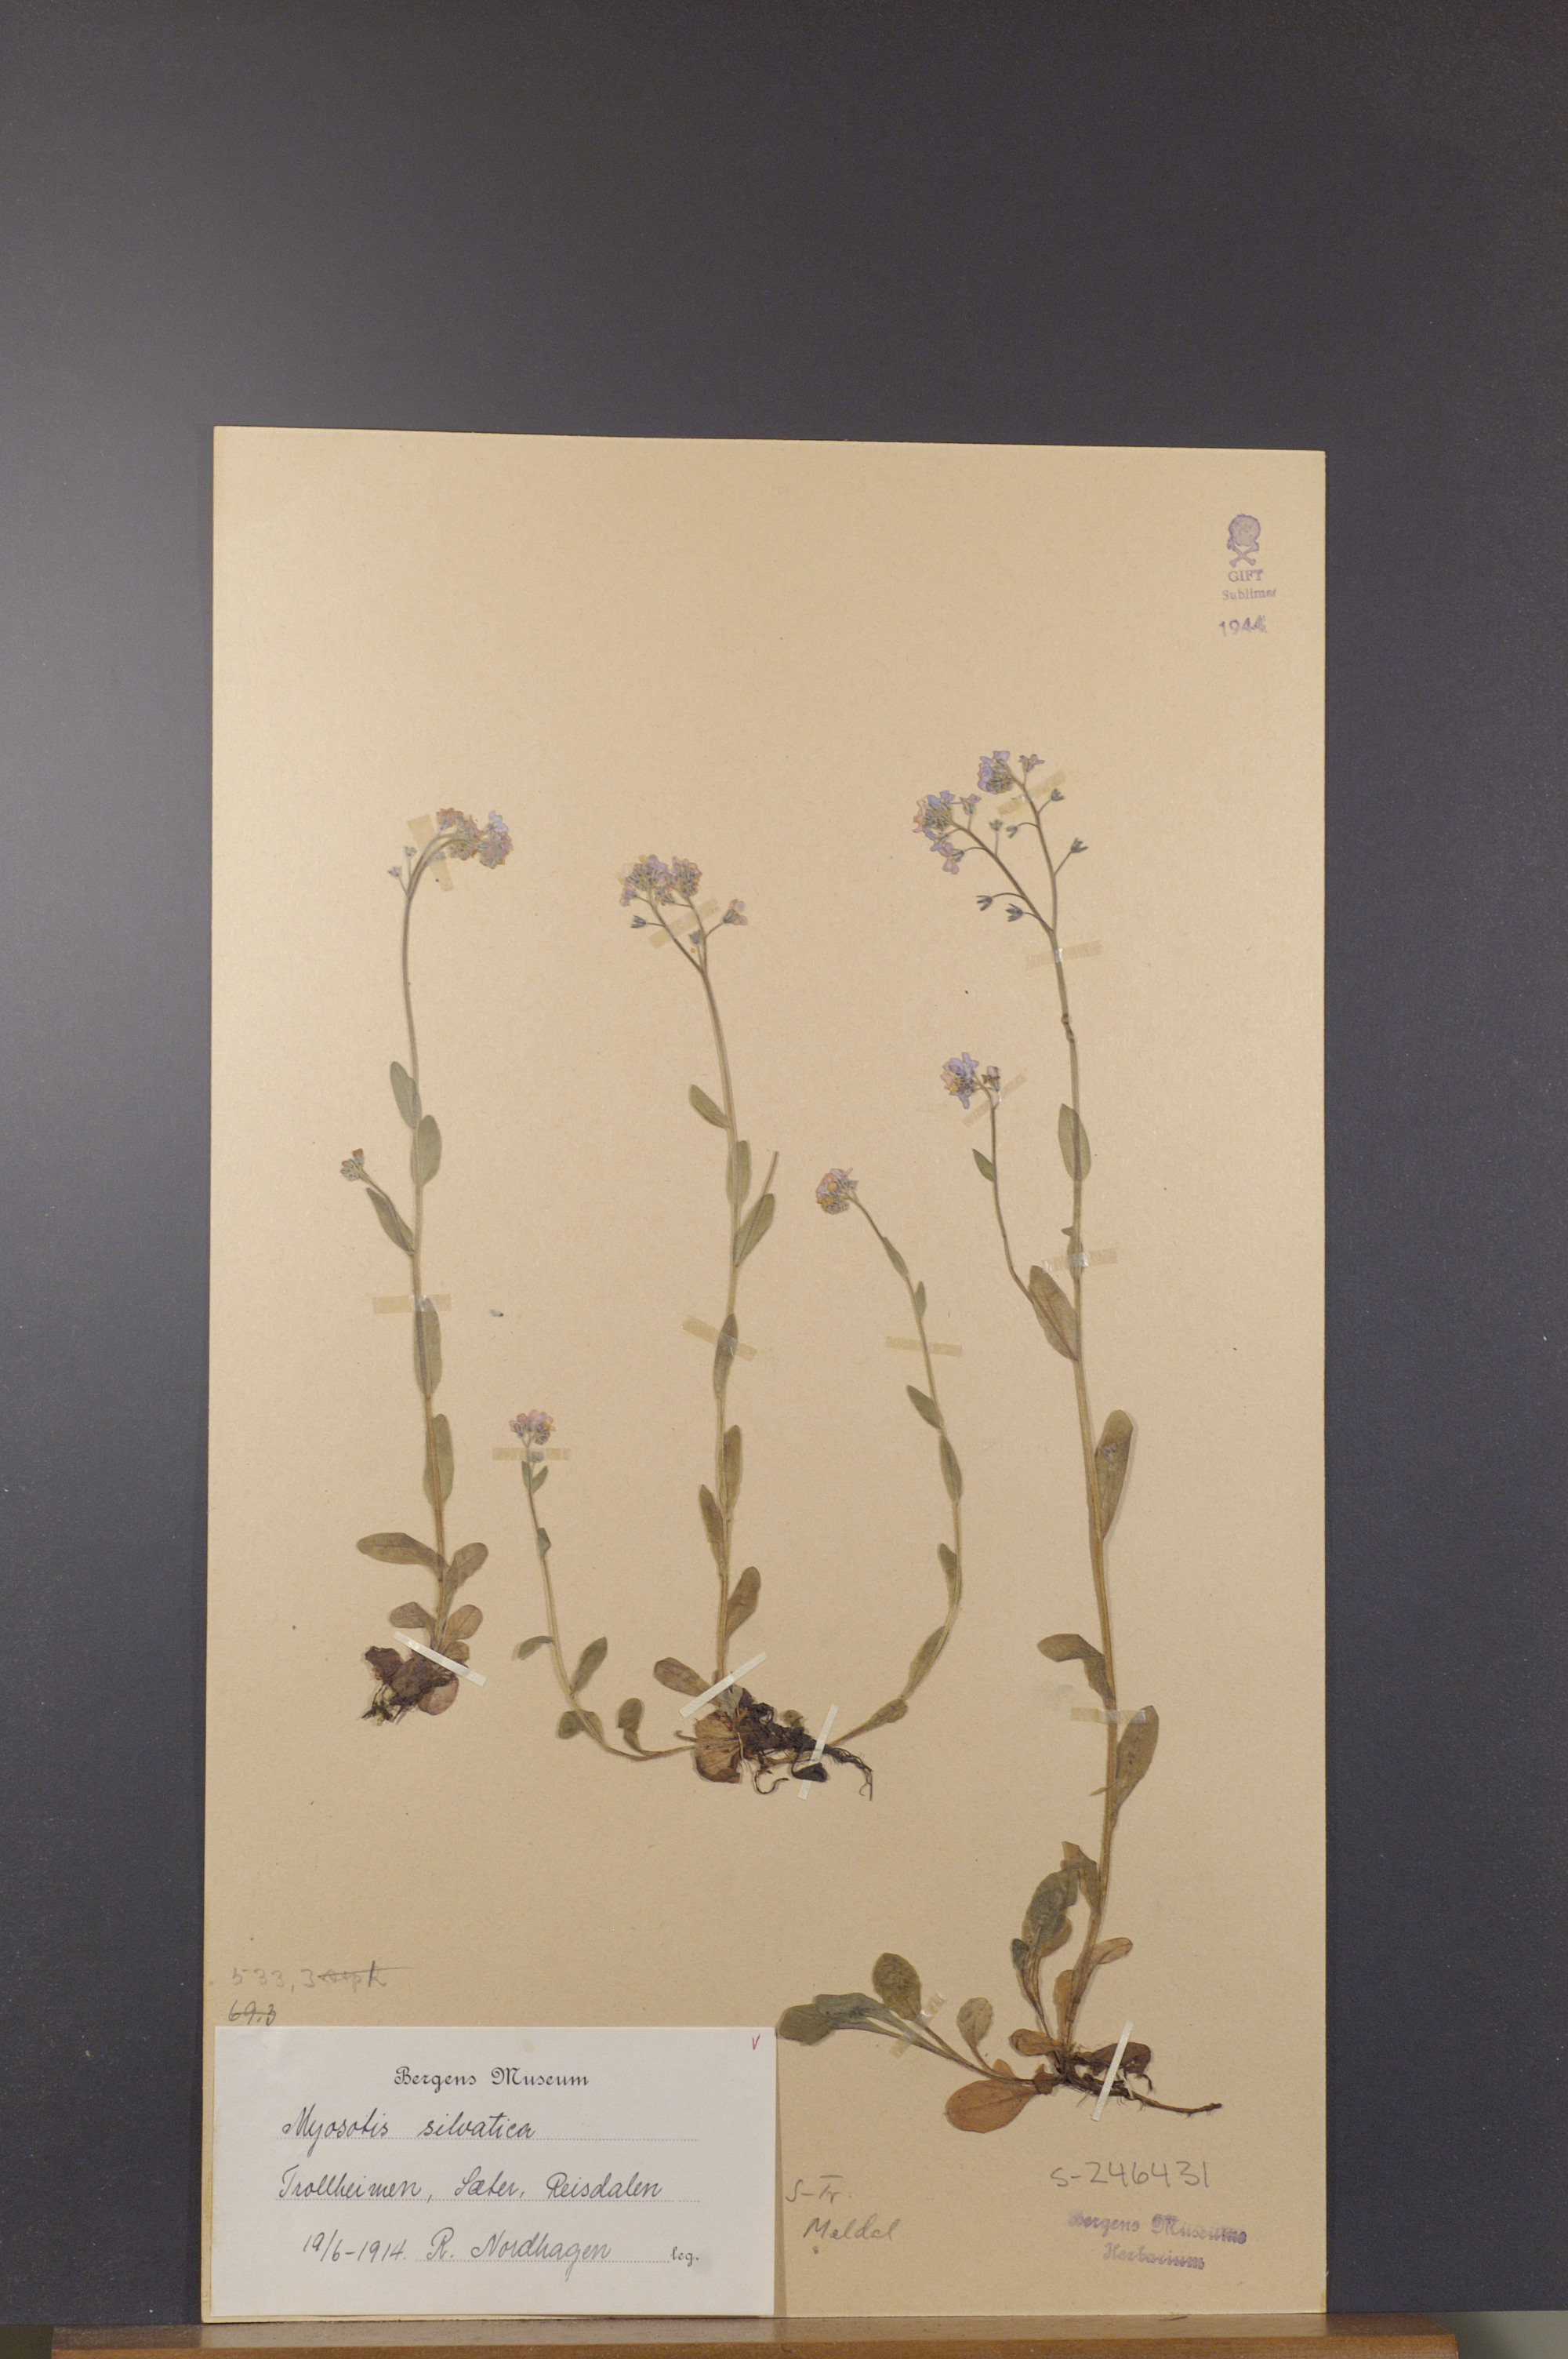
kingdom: Plantae
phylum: Tracheophyta
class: Magnoliopsida
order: Boraginales
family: Boraginaceae
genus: Myosotis
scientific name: Myosotis decumbens
